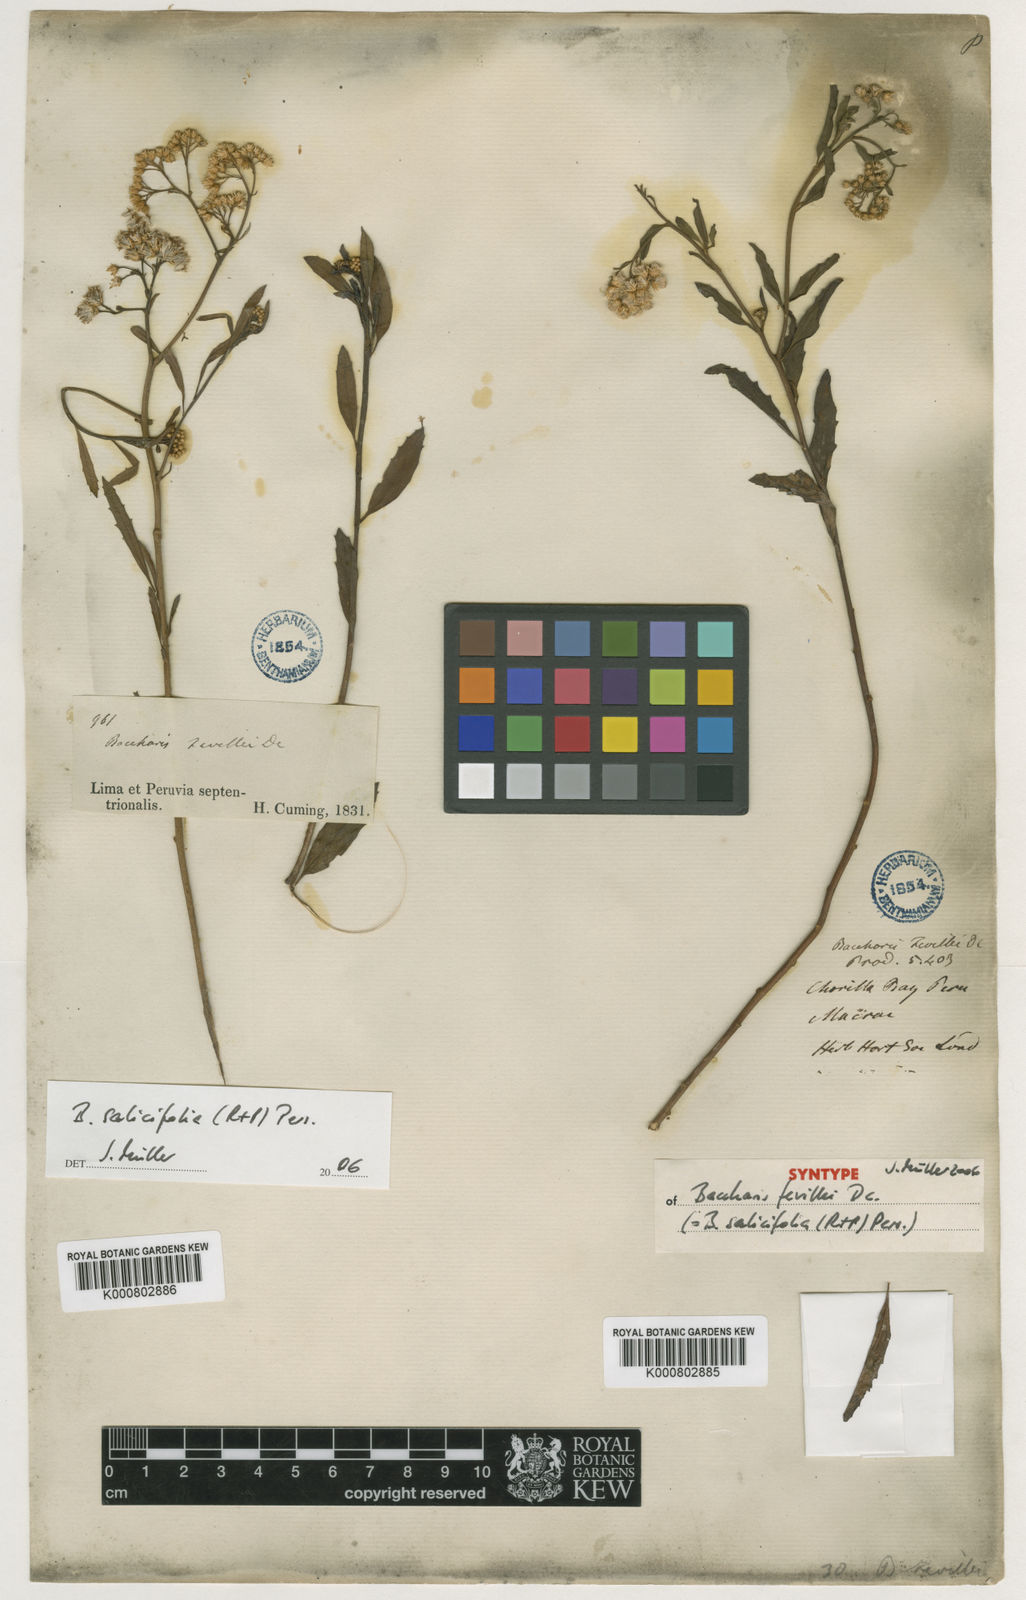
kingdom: Plantae
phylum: Tracheophyta
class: Magnoliopsida
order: Asterales
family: Asteraceae
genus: Baccharis
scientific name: Baccharis salicifolia
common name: Sticky baccharis
